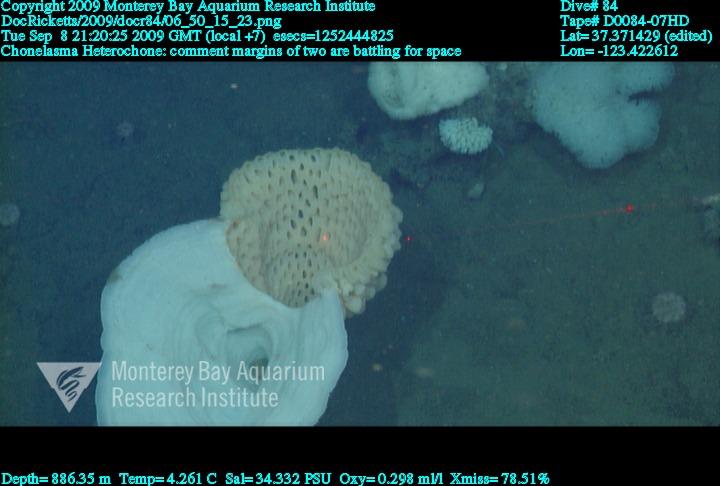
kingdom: Animalia
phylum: Porifera
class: Hexactinellida
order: Sceptrulophora
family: Euretidae
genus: Chonelasma
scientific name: Chonelasma
